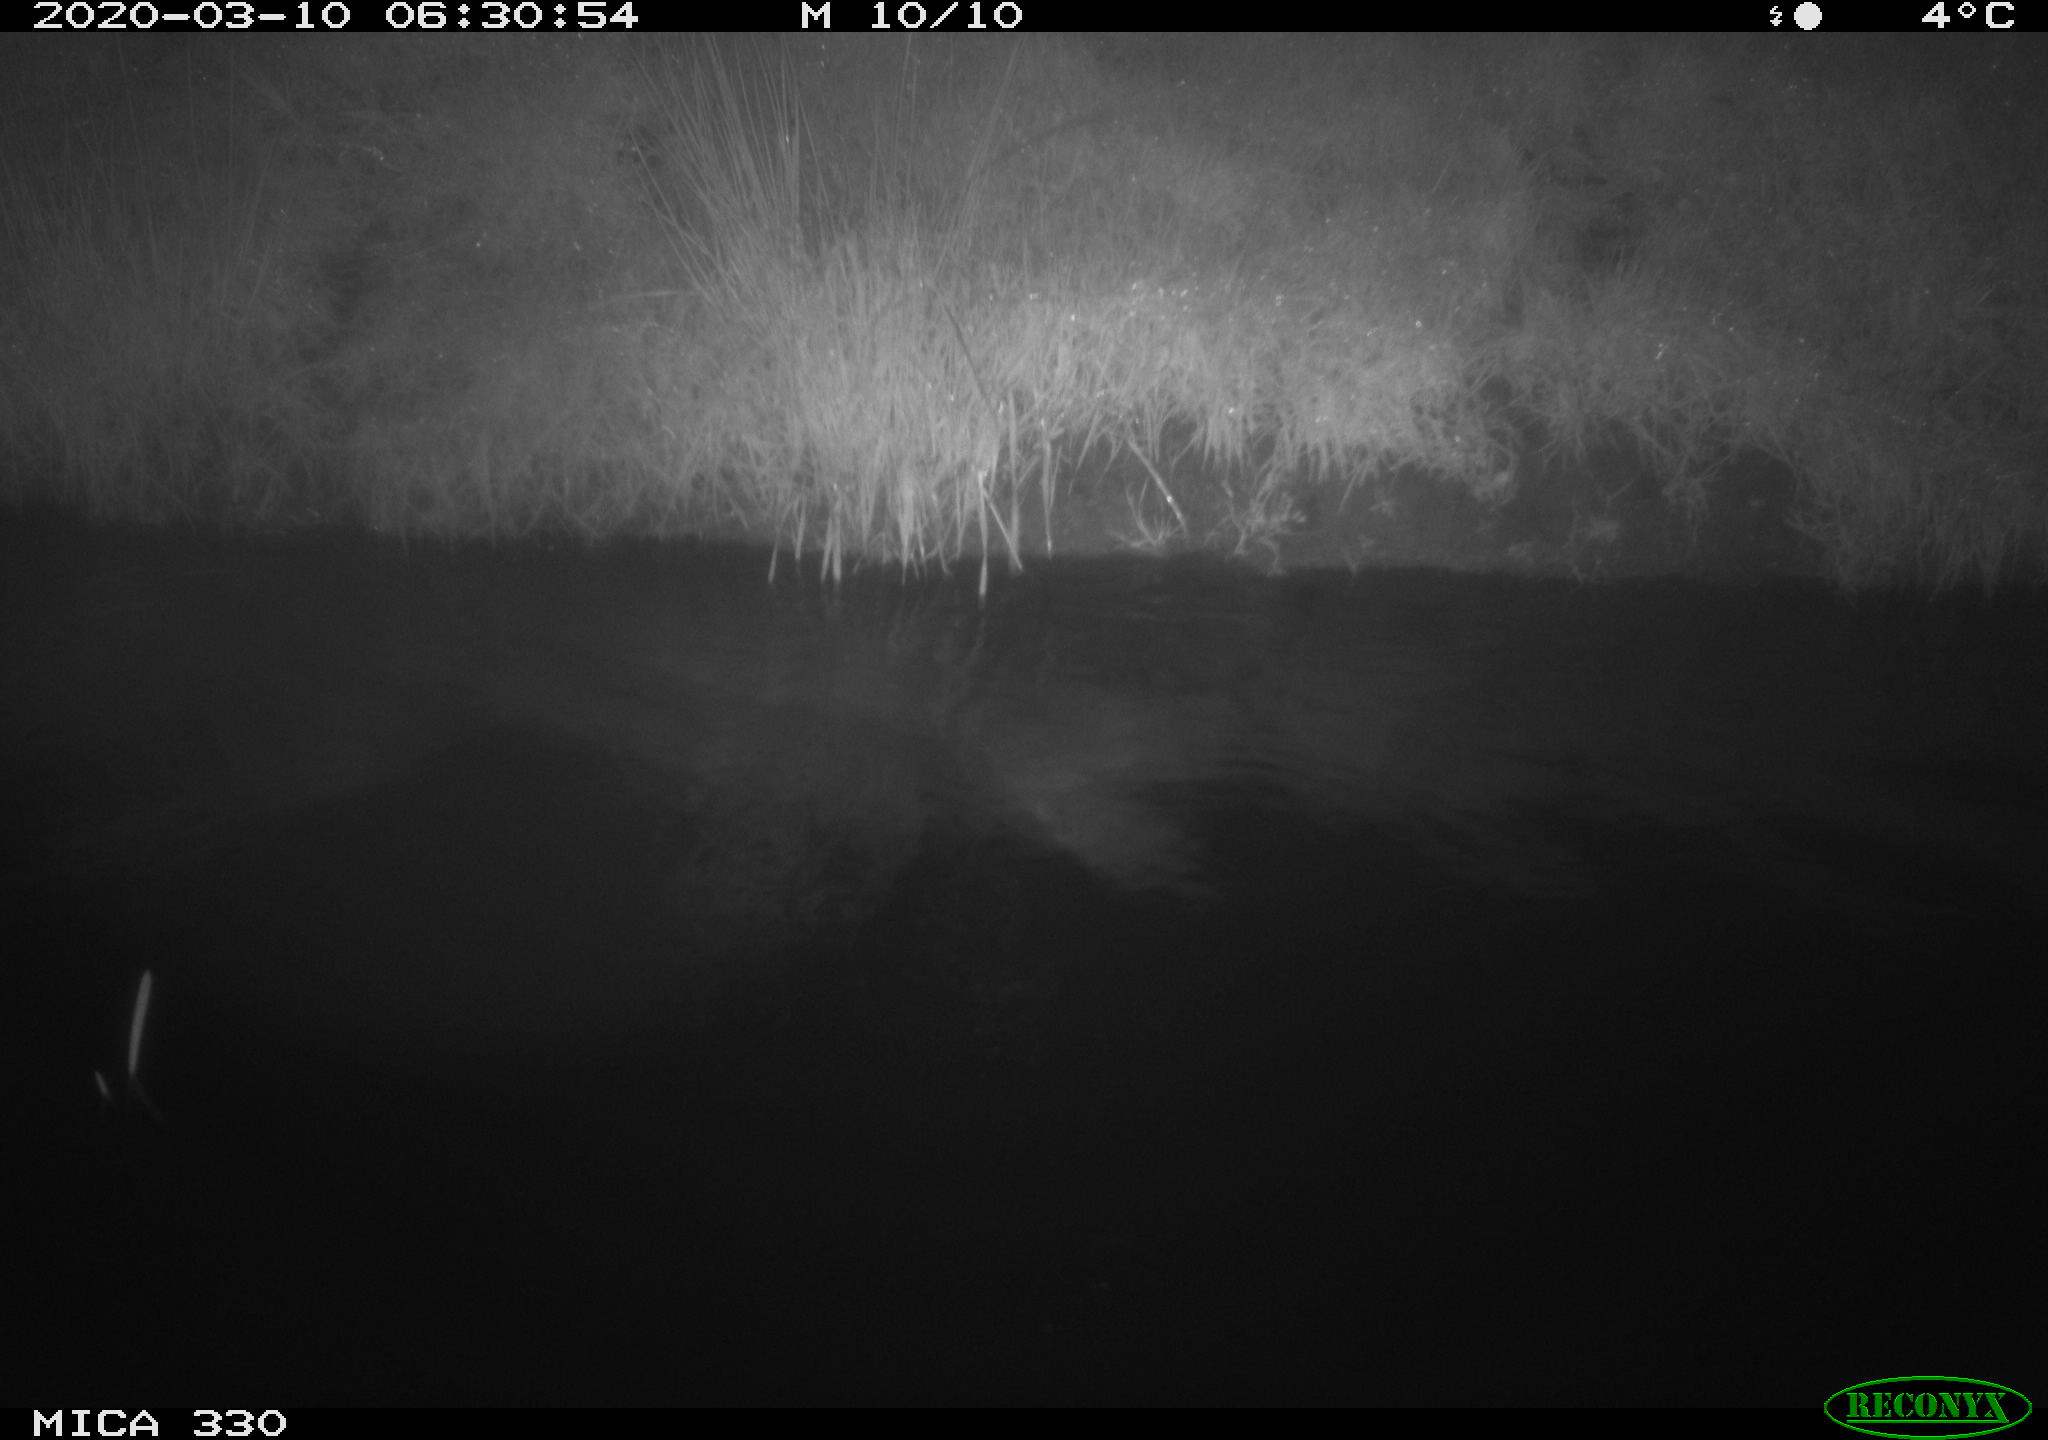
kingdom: Animalia
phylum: Chordata
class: Aves
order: Anseriformes
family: Anatidae
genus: Anas
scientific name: Anas platyrhynchos
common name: Mallard
